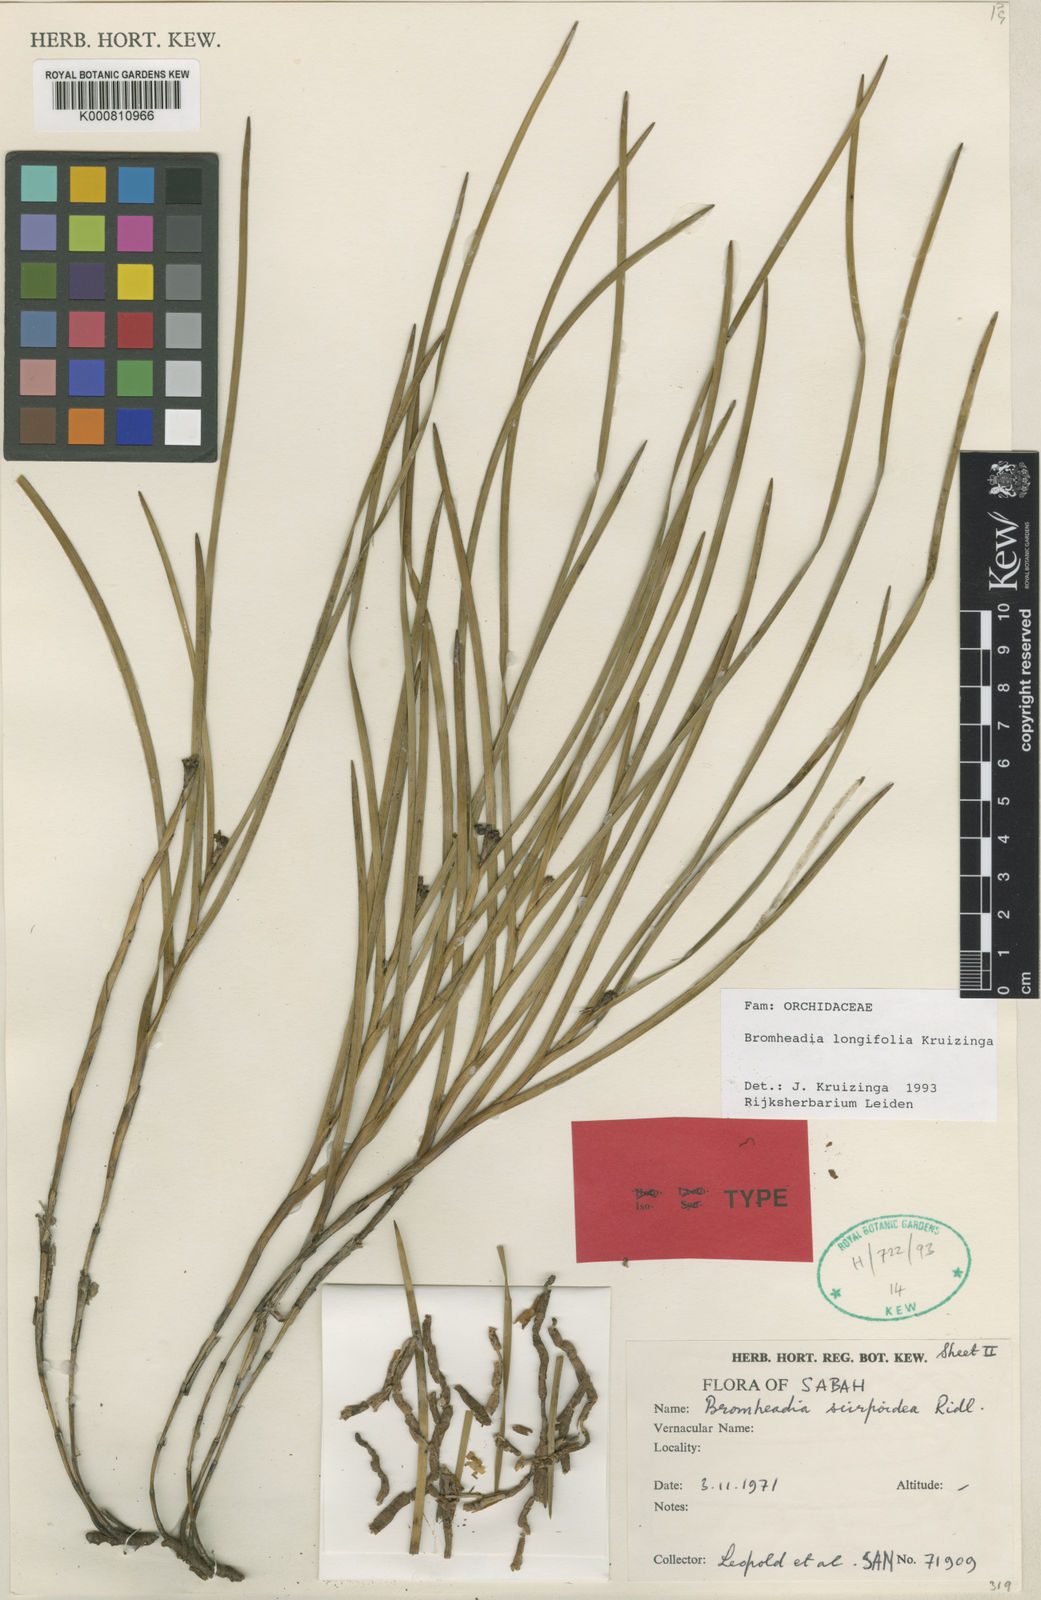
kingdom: Plantae
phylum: Tracheophyta
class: Liliopsida
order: Asparagales
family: Orchidaceae
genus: Bromheadia
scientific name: Bromheadia longifolia
